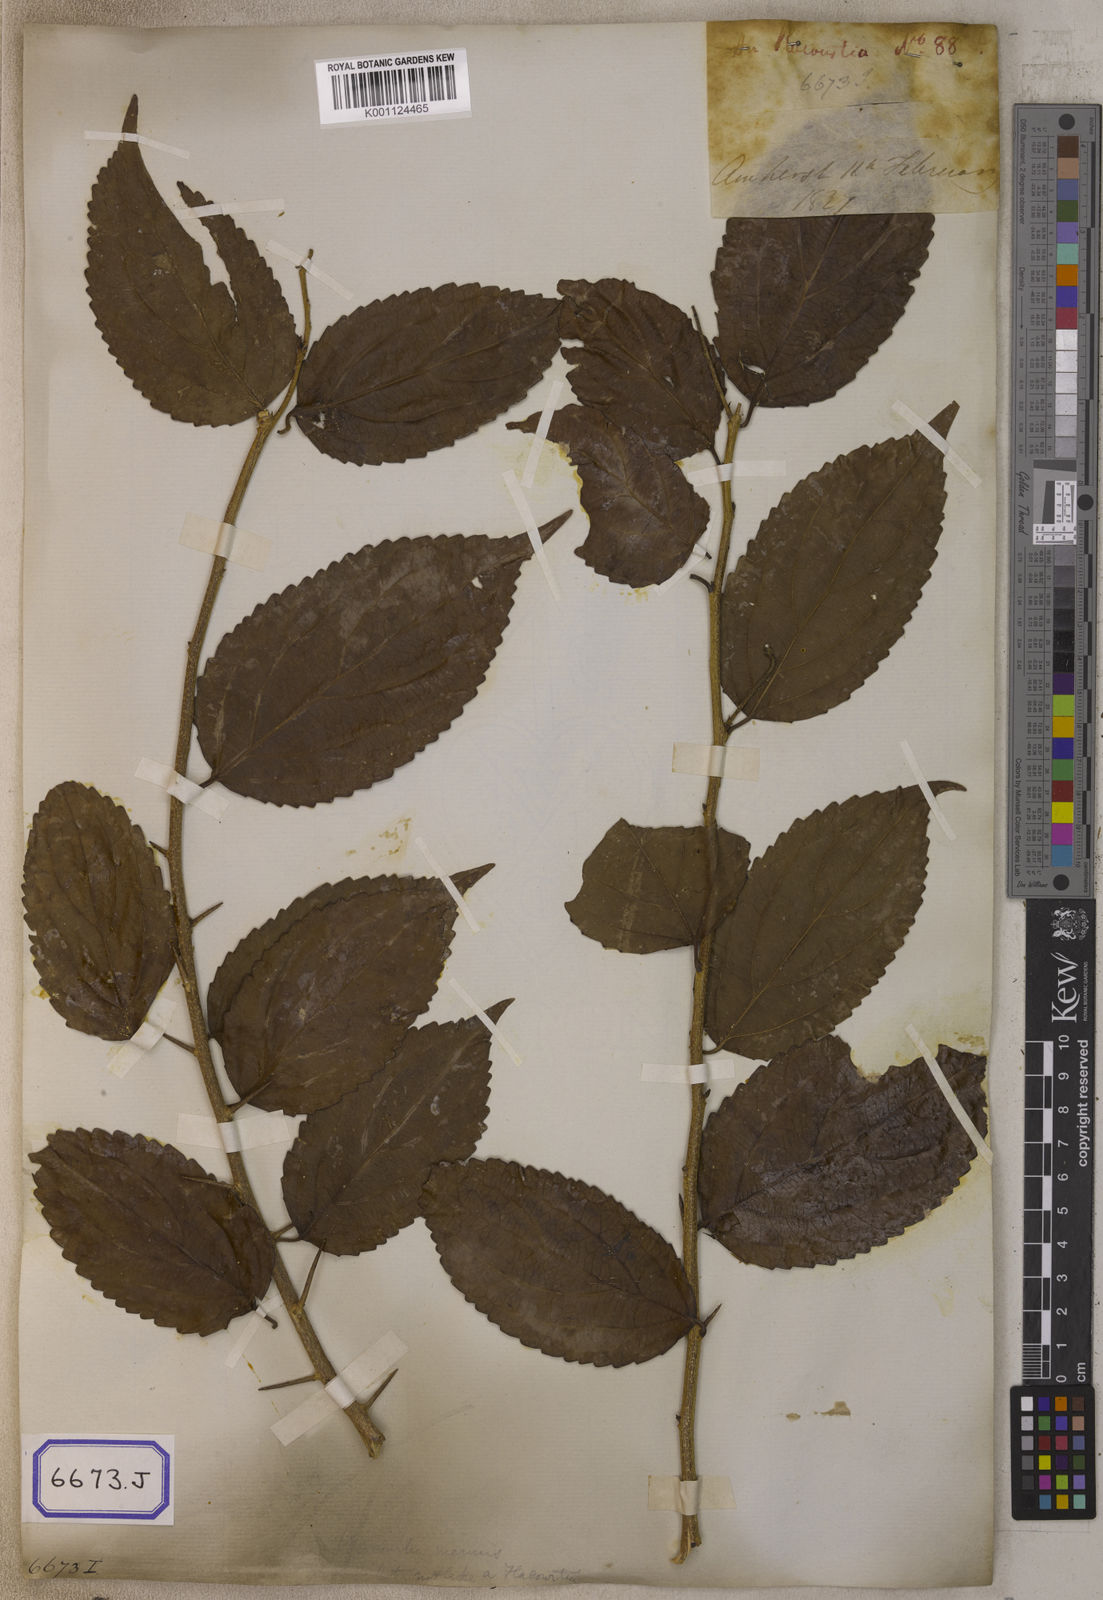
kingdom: Plantae
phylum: Tracheophyta
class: Magnoliopsida
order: Malpighiales
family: Salicaceae
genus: Flacourtia
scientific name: Flacourtia
